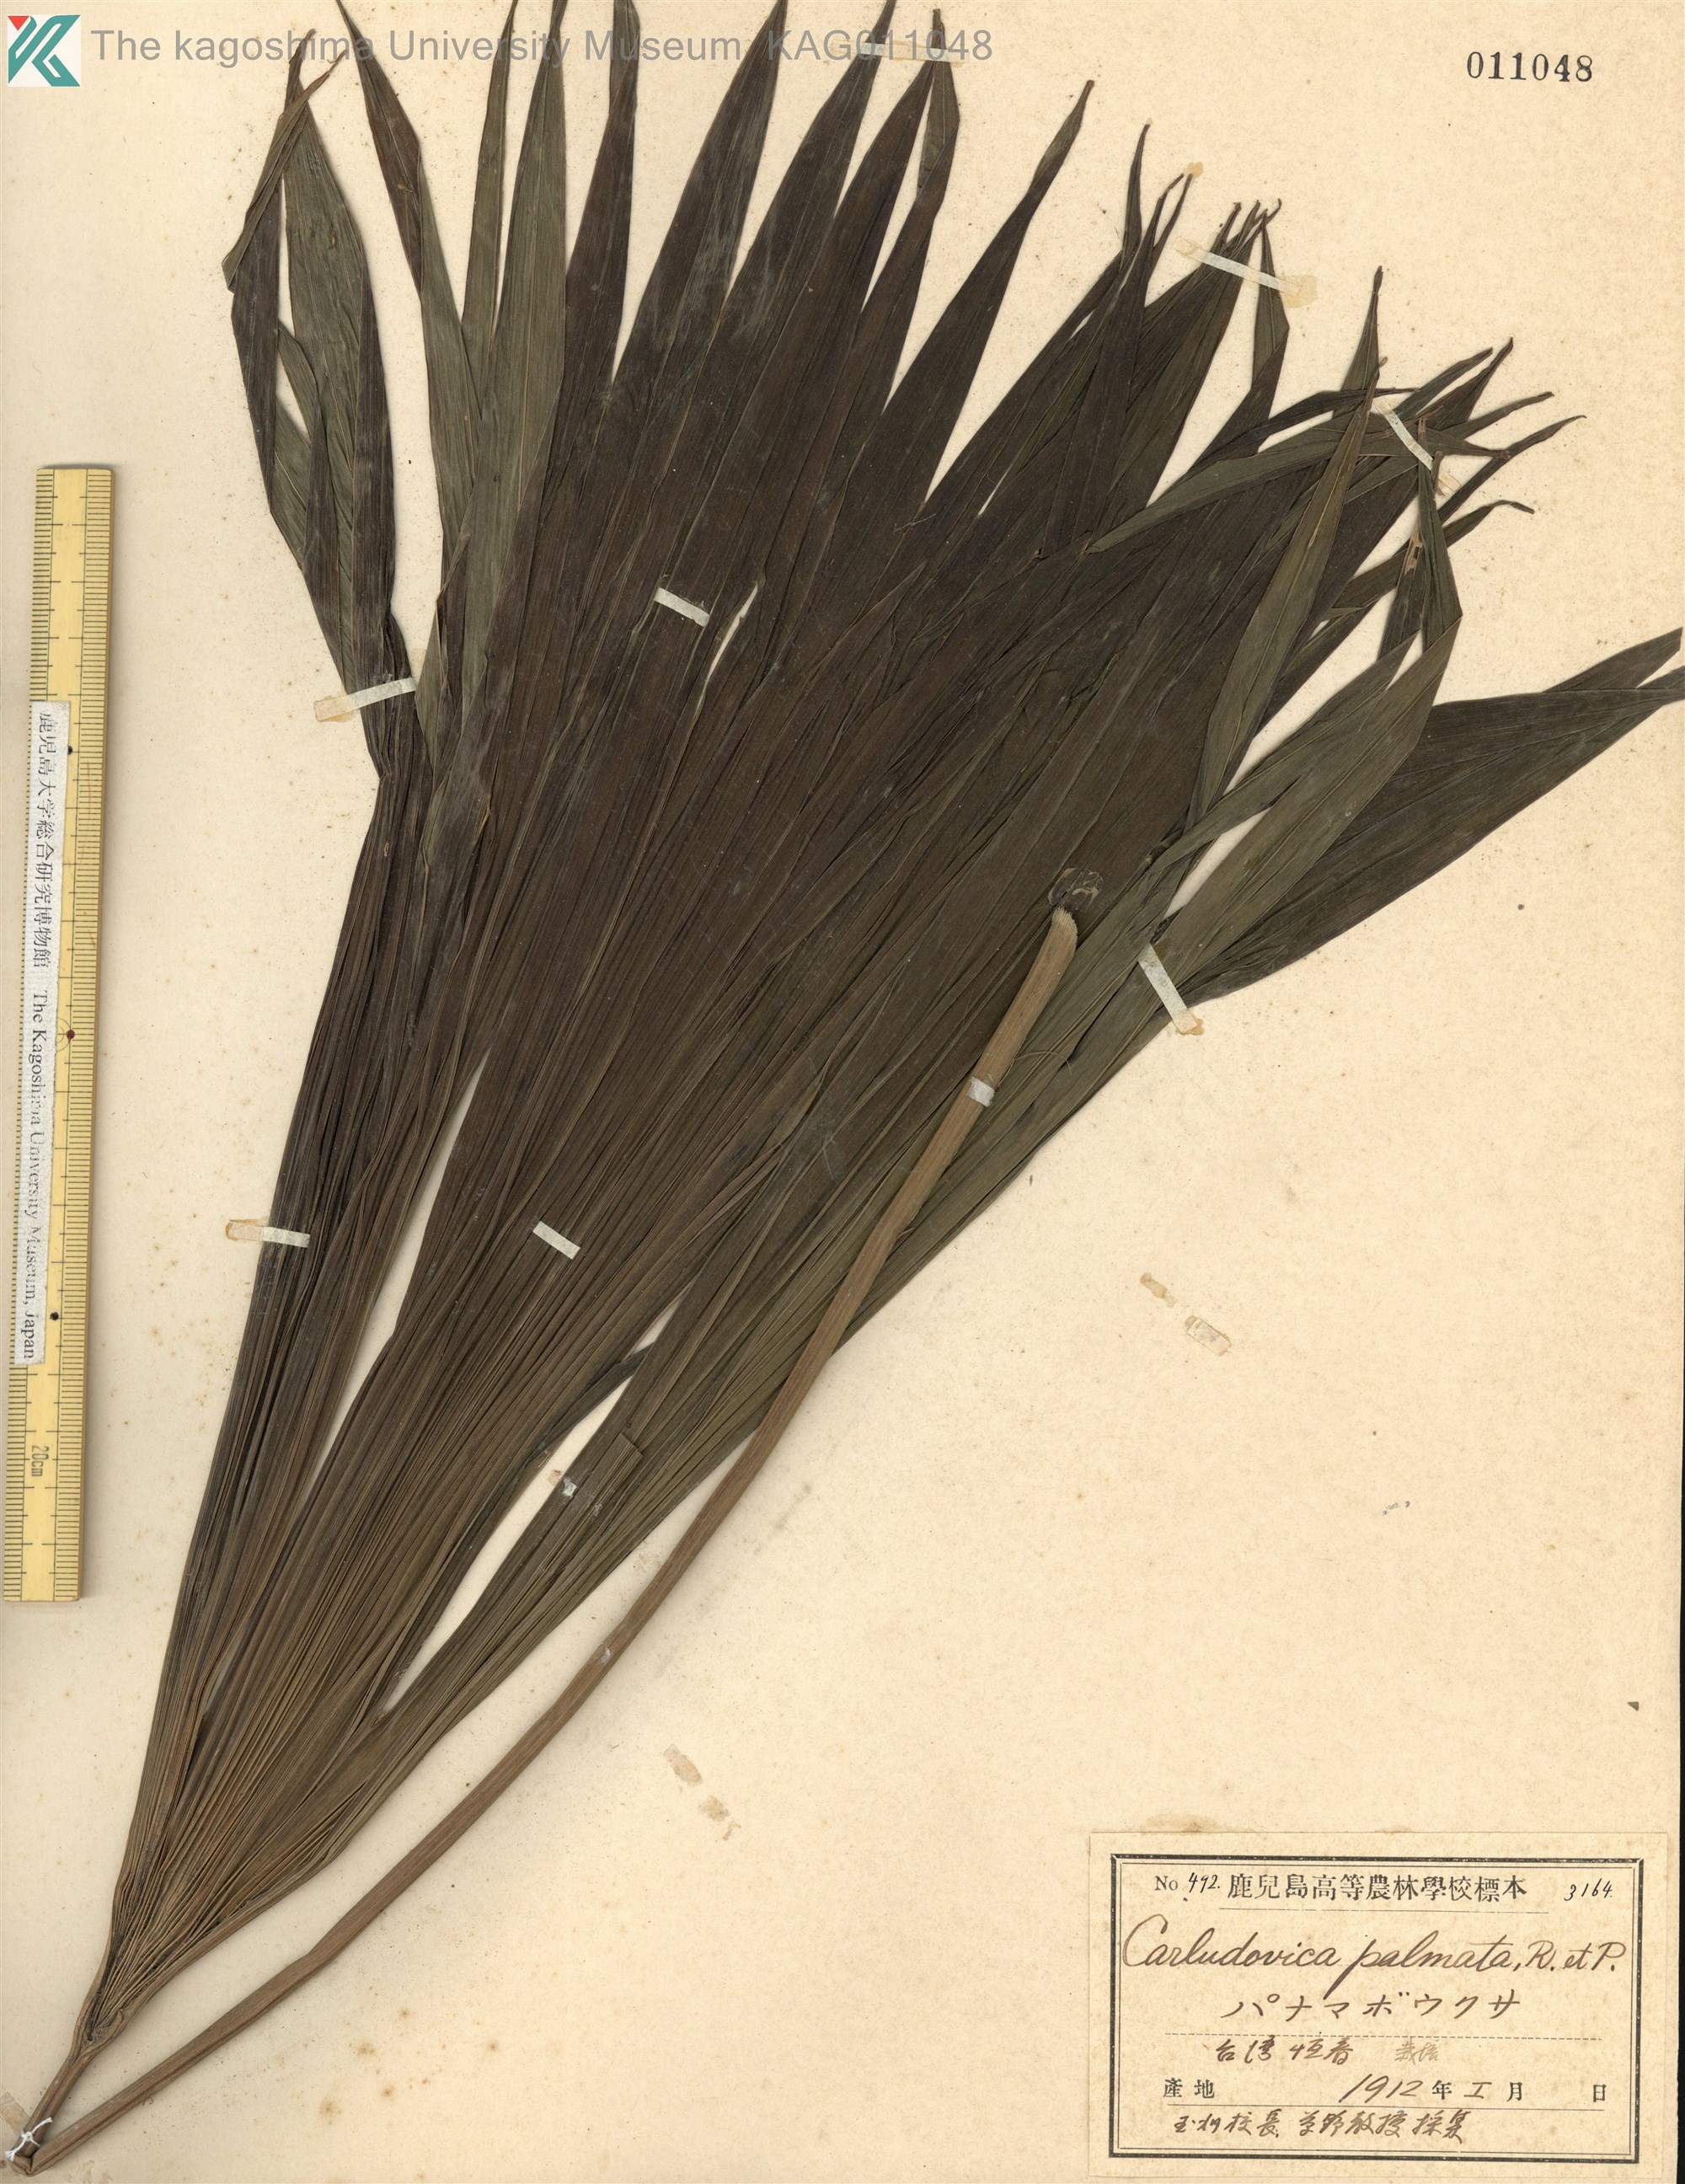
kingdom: Plantae
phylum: Tracheophyta
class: Liliopsida
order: Pandanales
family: Cyclanthaceae
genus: Carludovica
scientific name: Carludovica palmata
